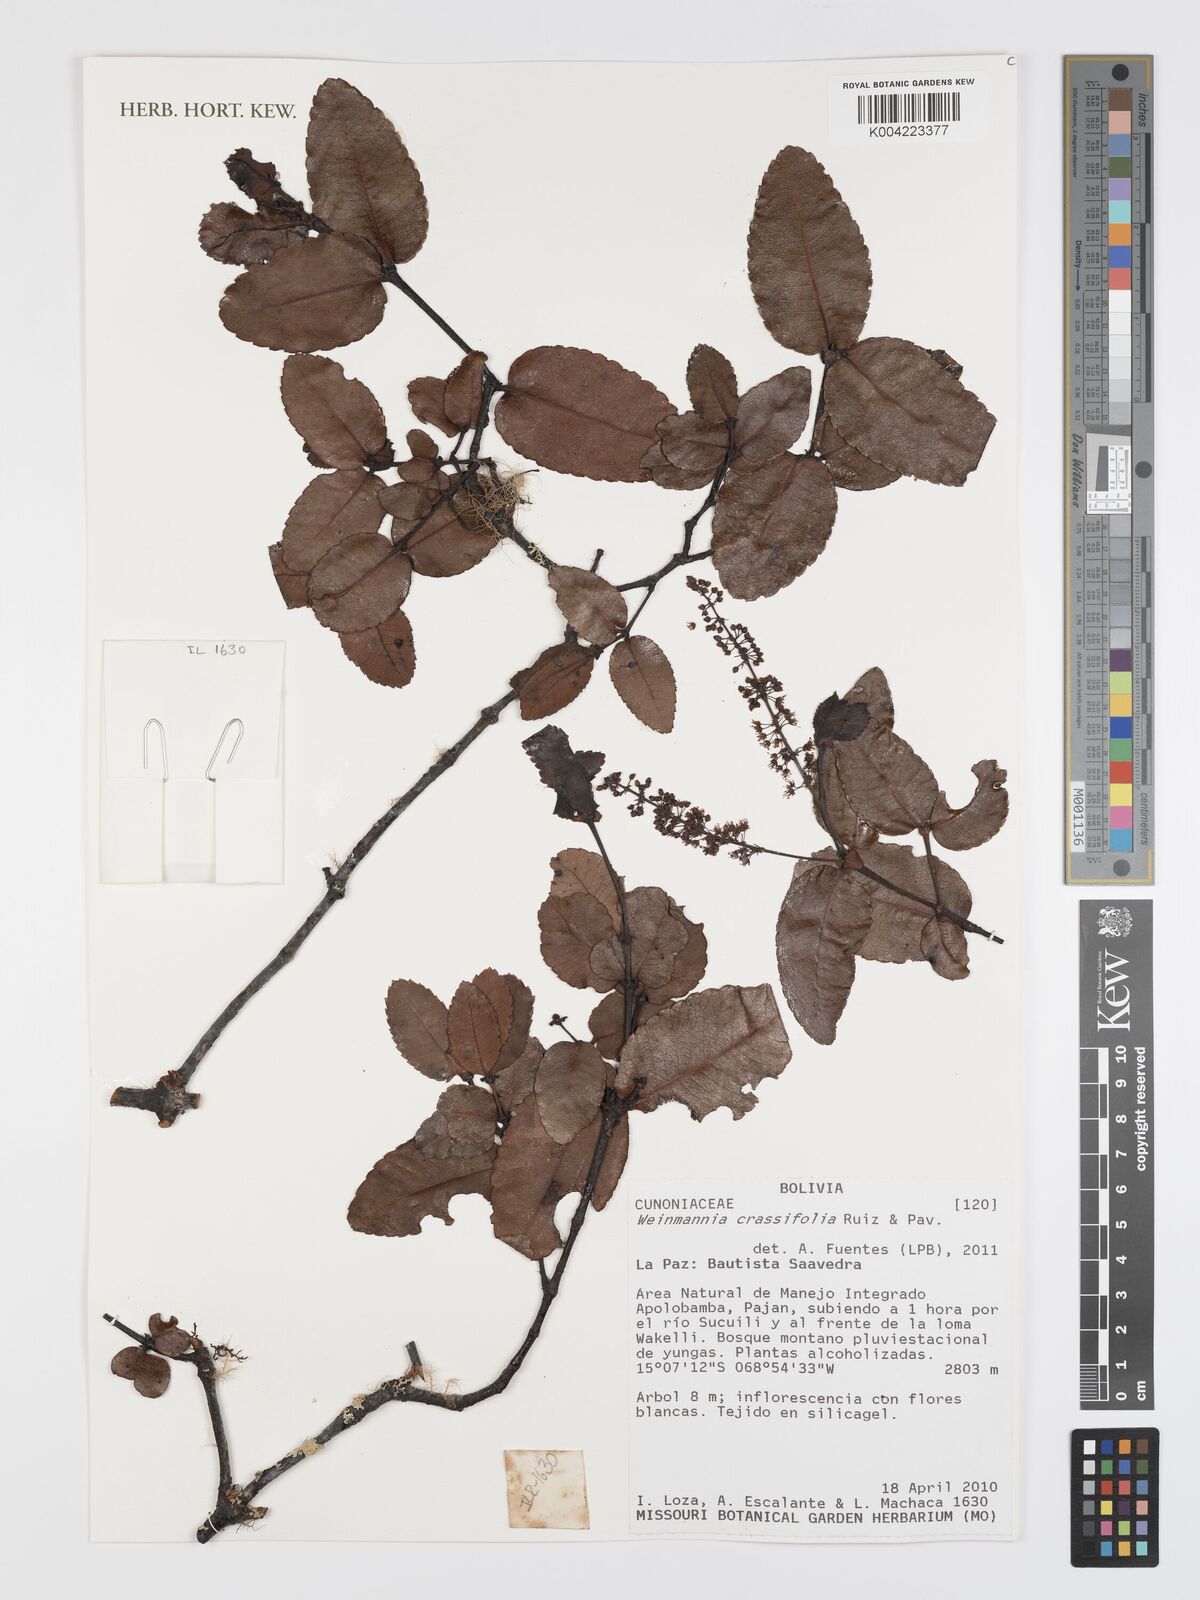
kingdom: Plantae
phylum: Tracheophyta
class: Magnoliopsida
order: Oxalidales
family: Cunoniaceae
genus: Weinmannia
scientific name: Weinmannia crassifolia
